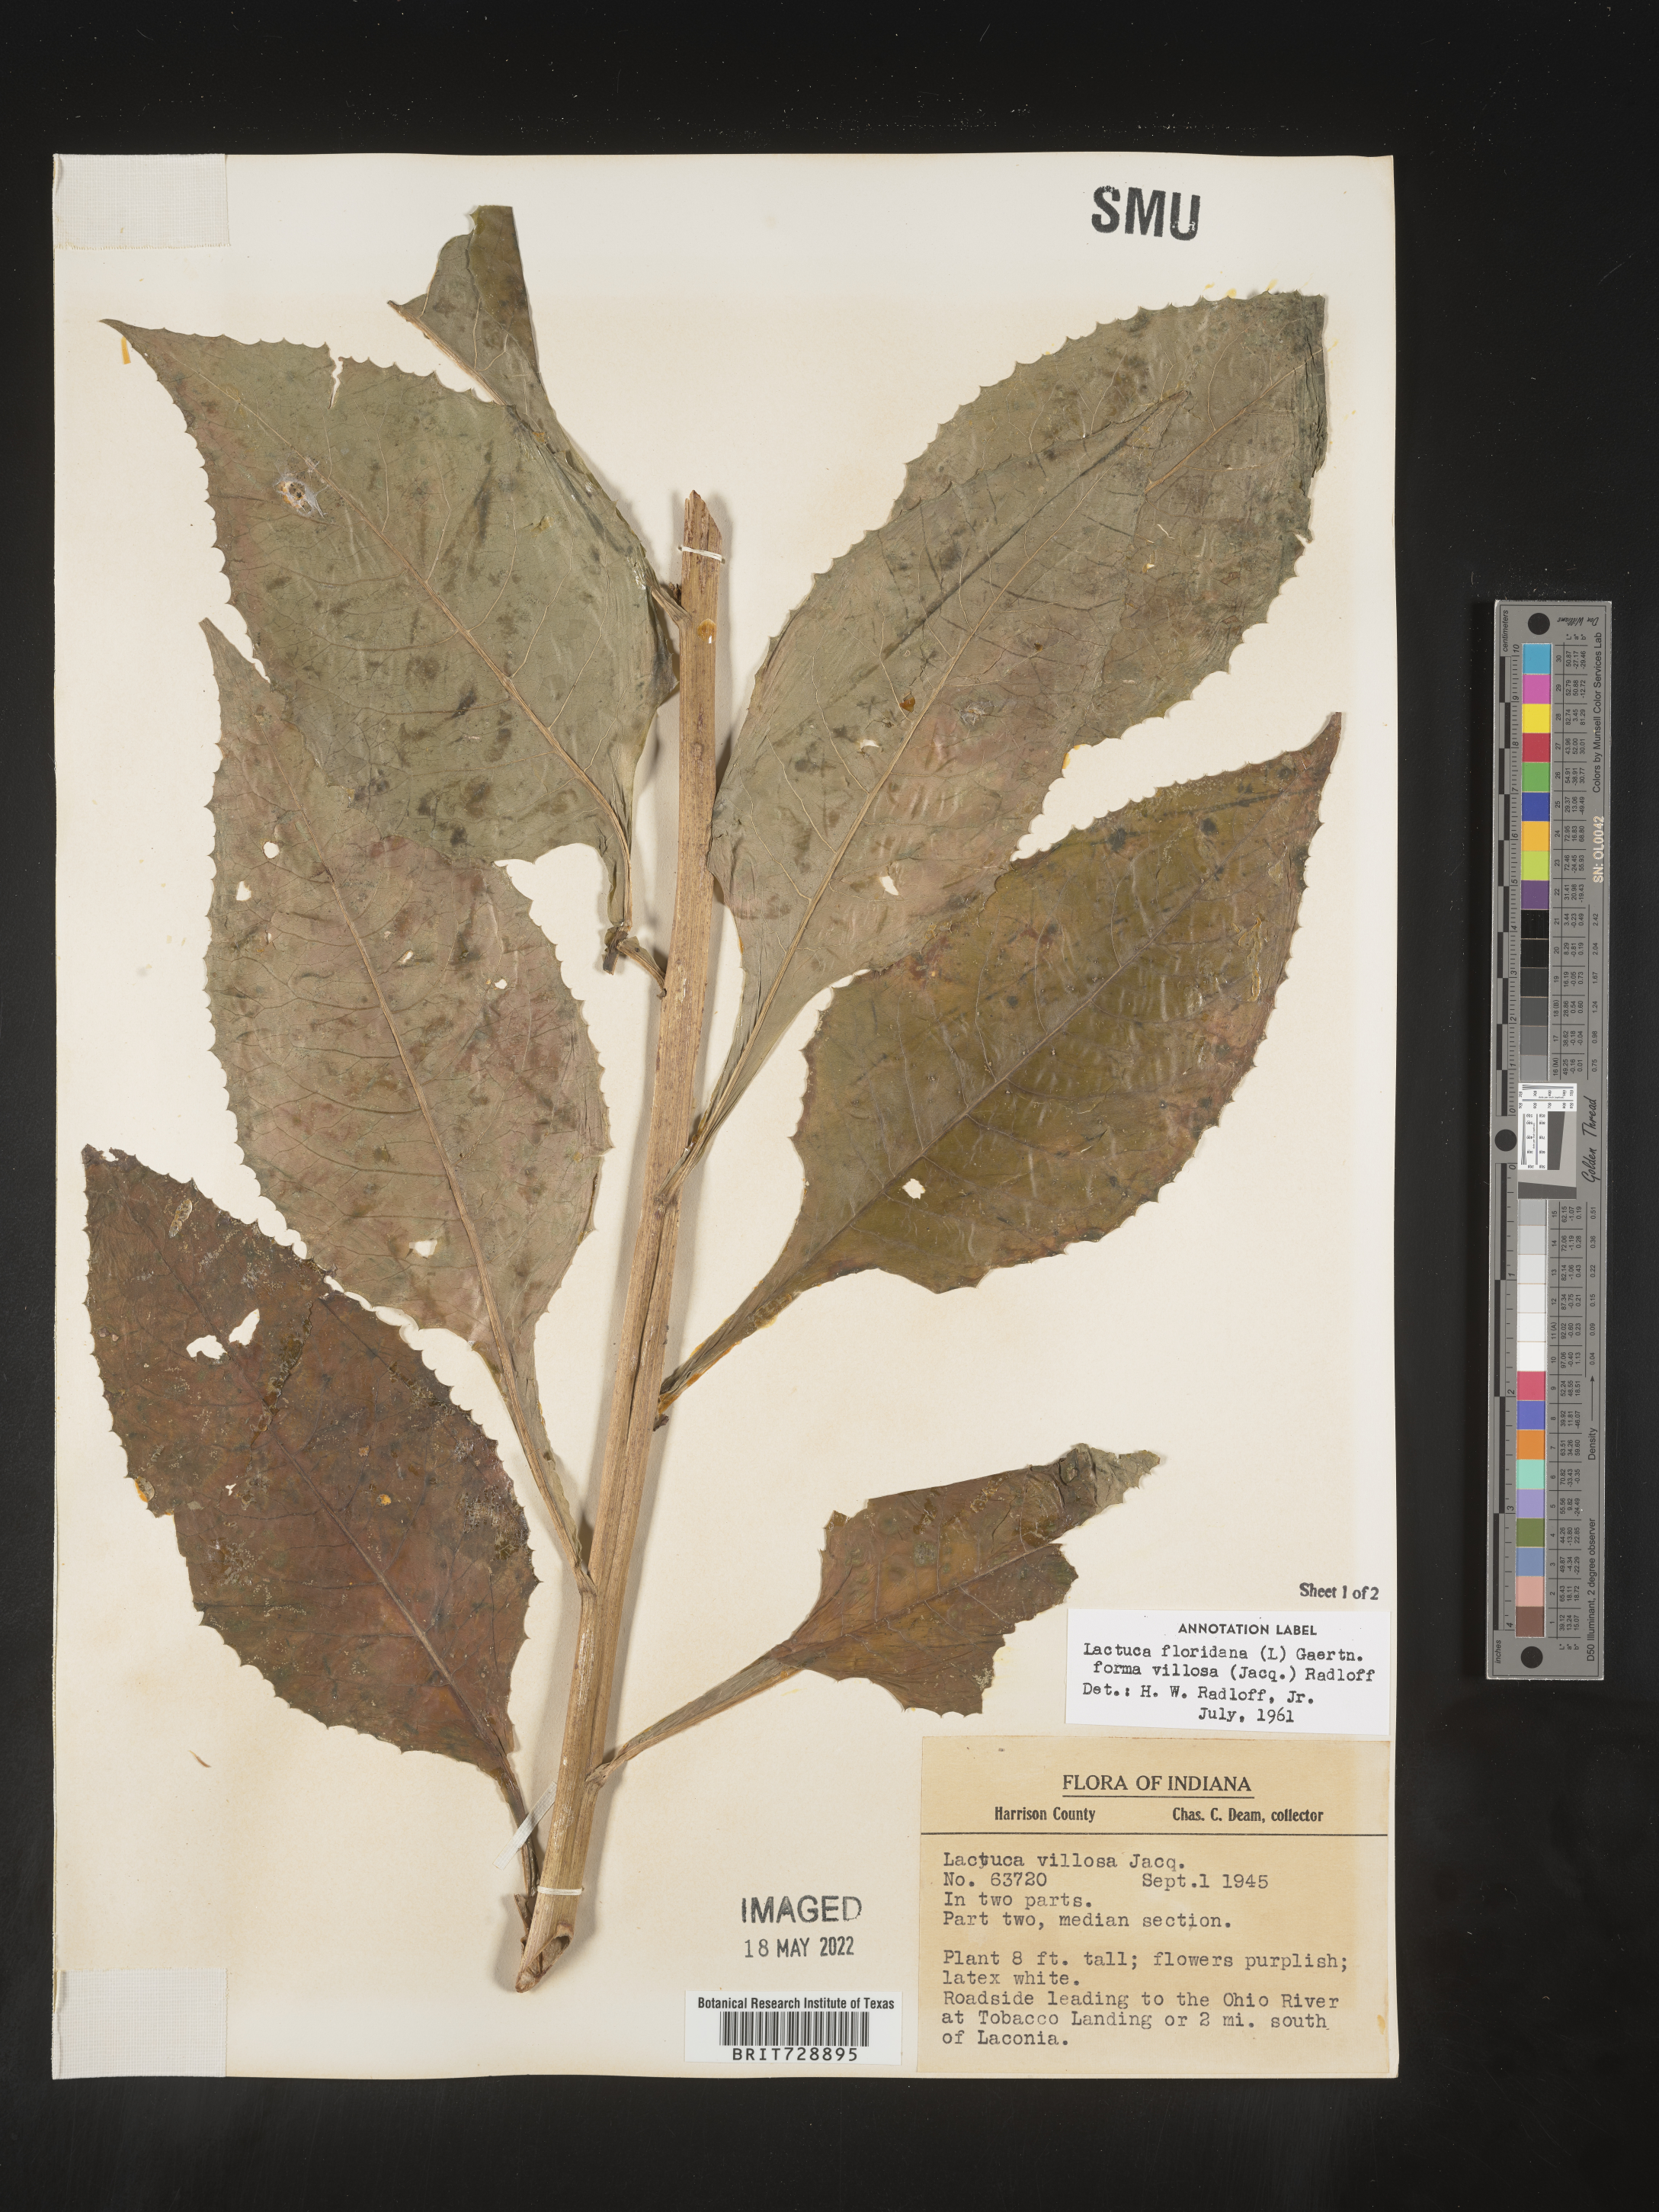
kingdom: Plantae
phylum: Tracheophyta
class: Magnoliopsida
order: Asterales
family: Asteraceae
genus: Lactuca
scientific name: Lactuca floridana
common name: Woodland lettuce
